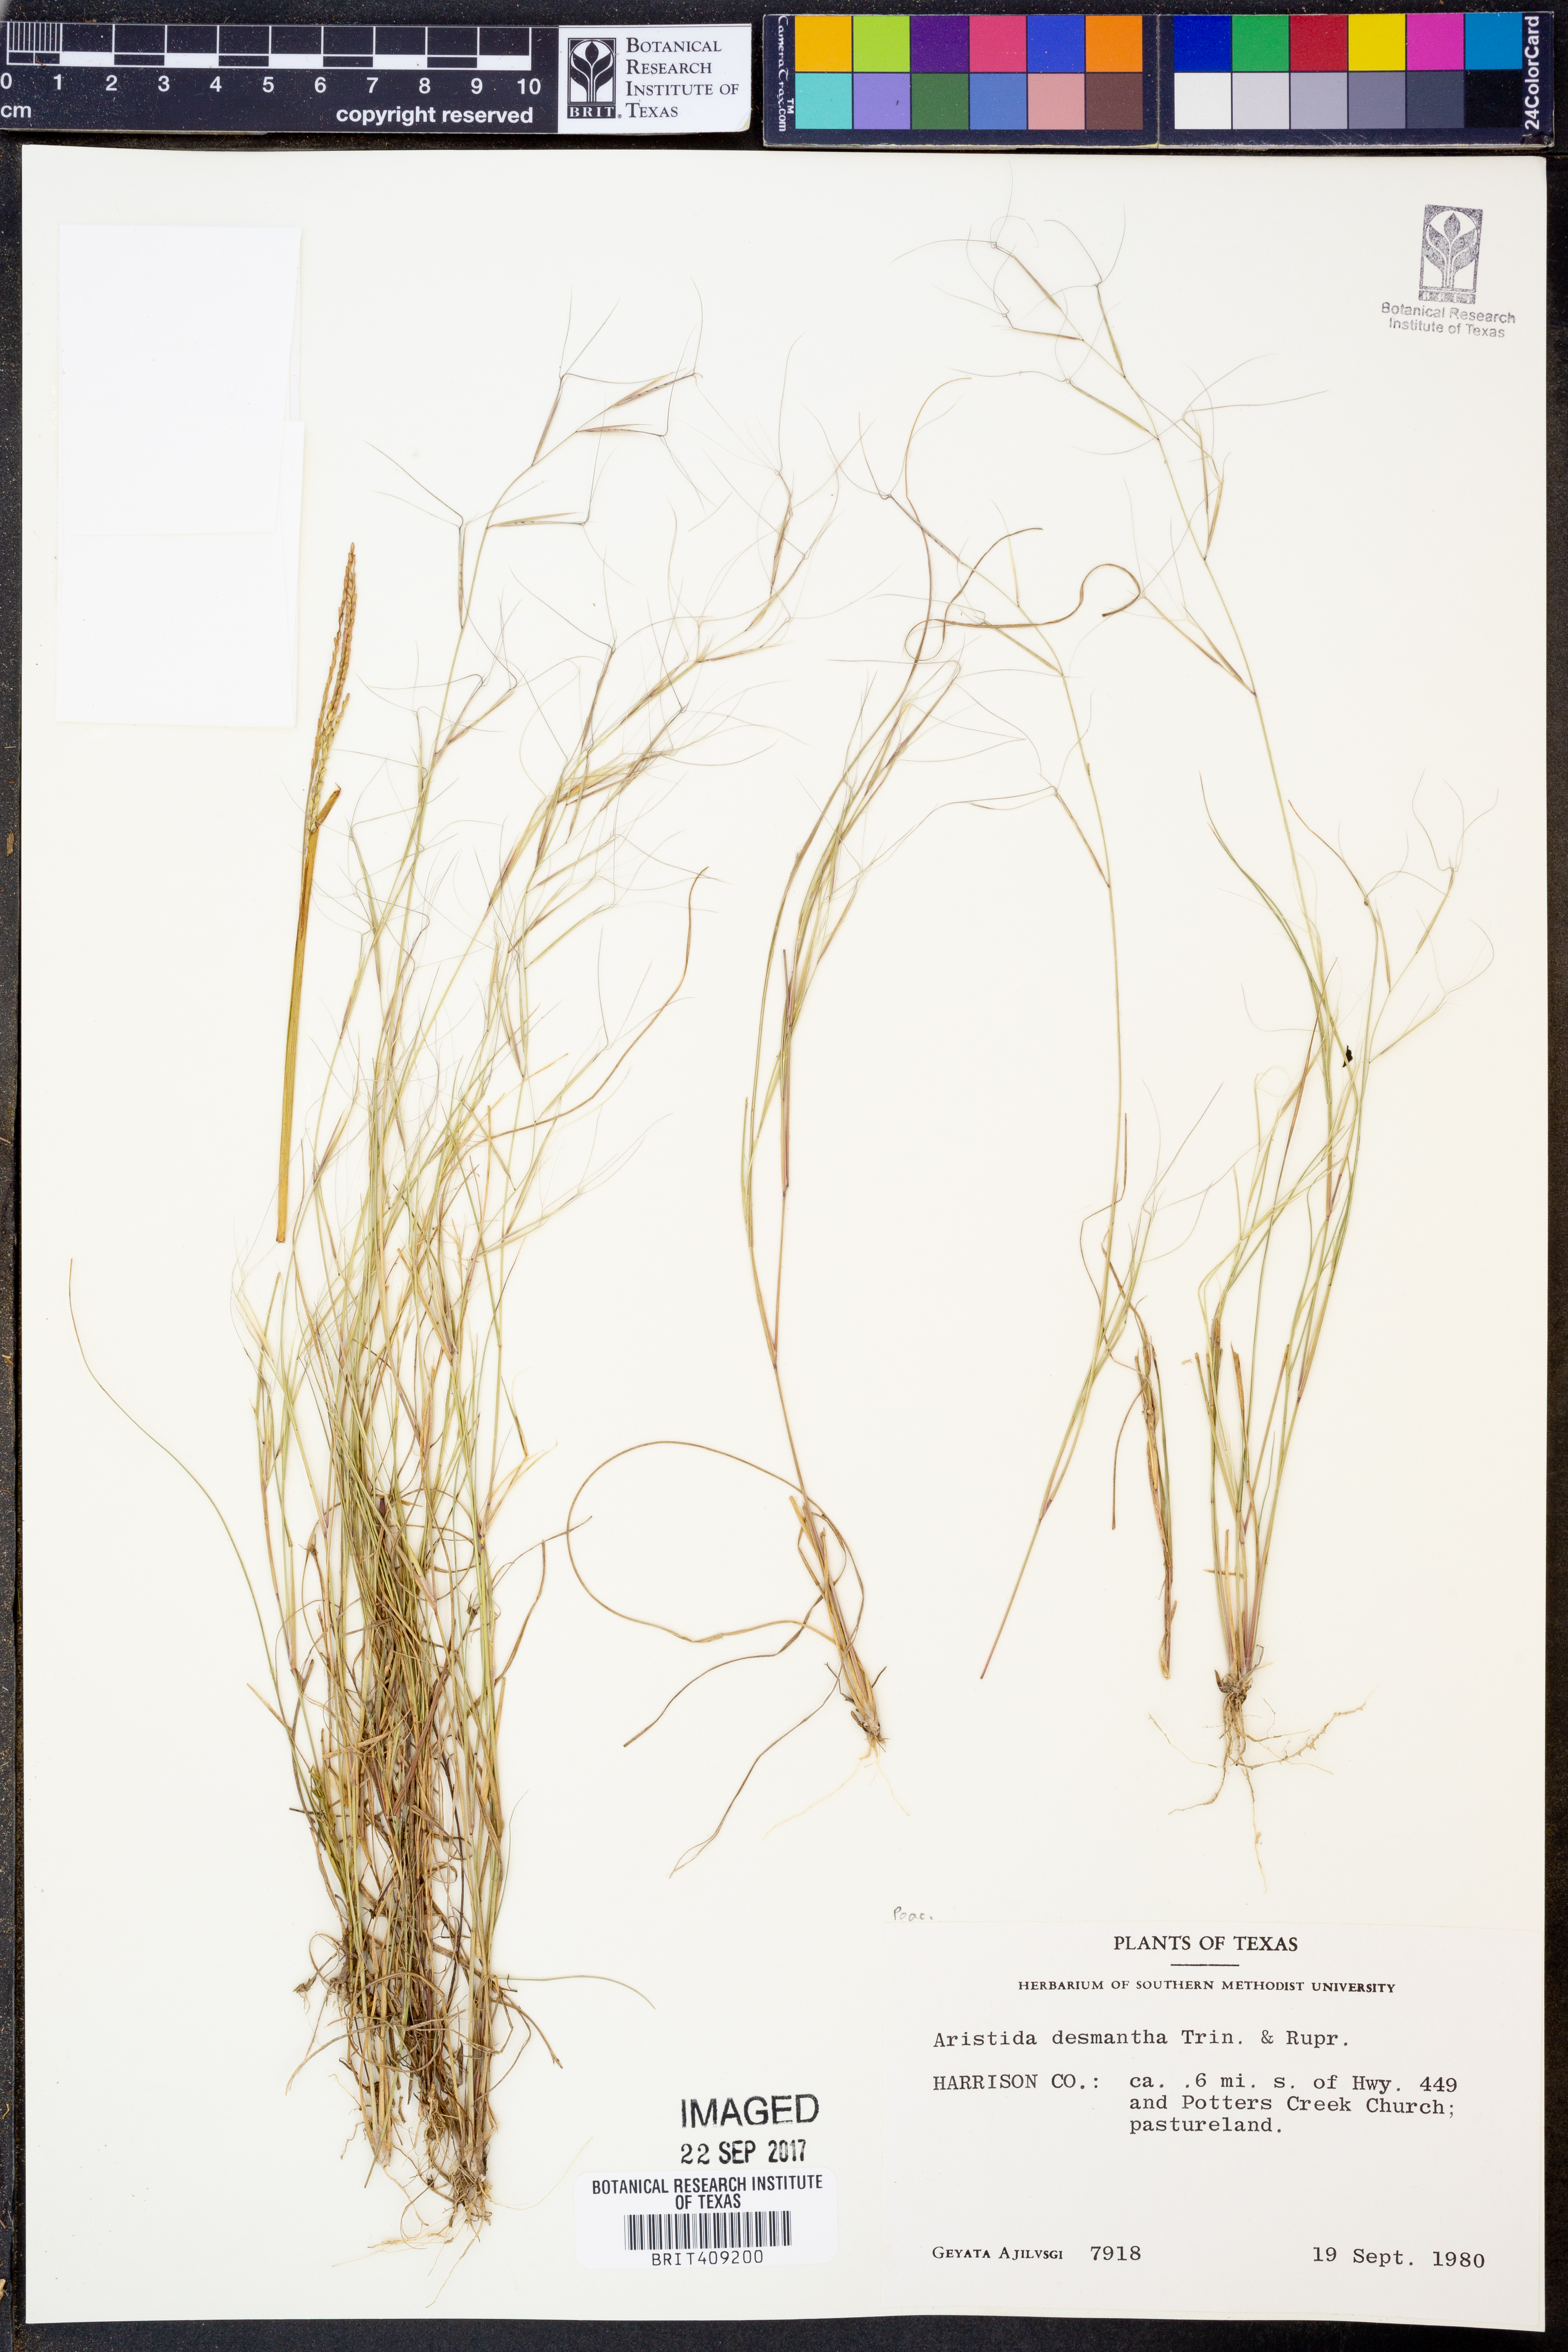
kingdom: Plantae
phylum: Tracheophyta
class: Liliopsida
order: Poales
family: Poaceae
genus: Aristida
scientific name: Aristida desmantha
